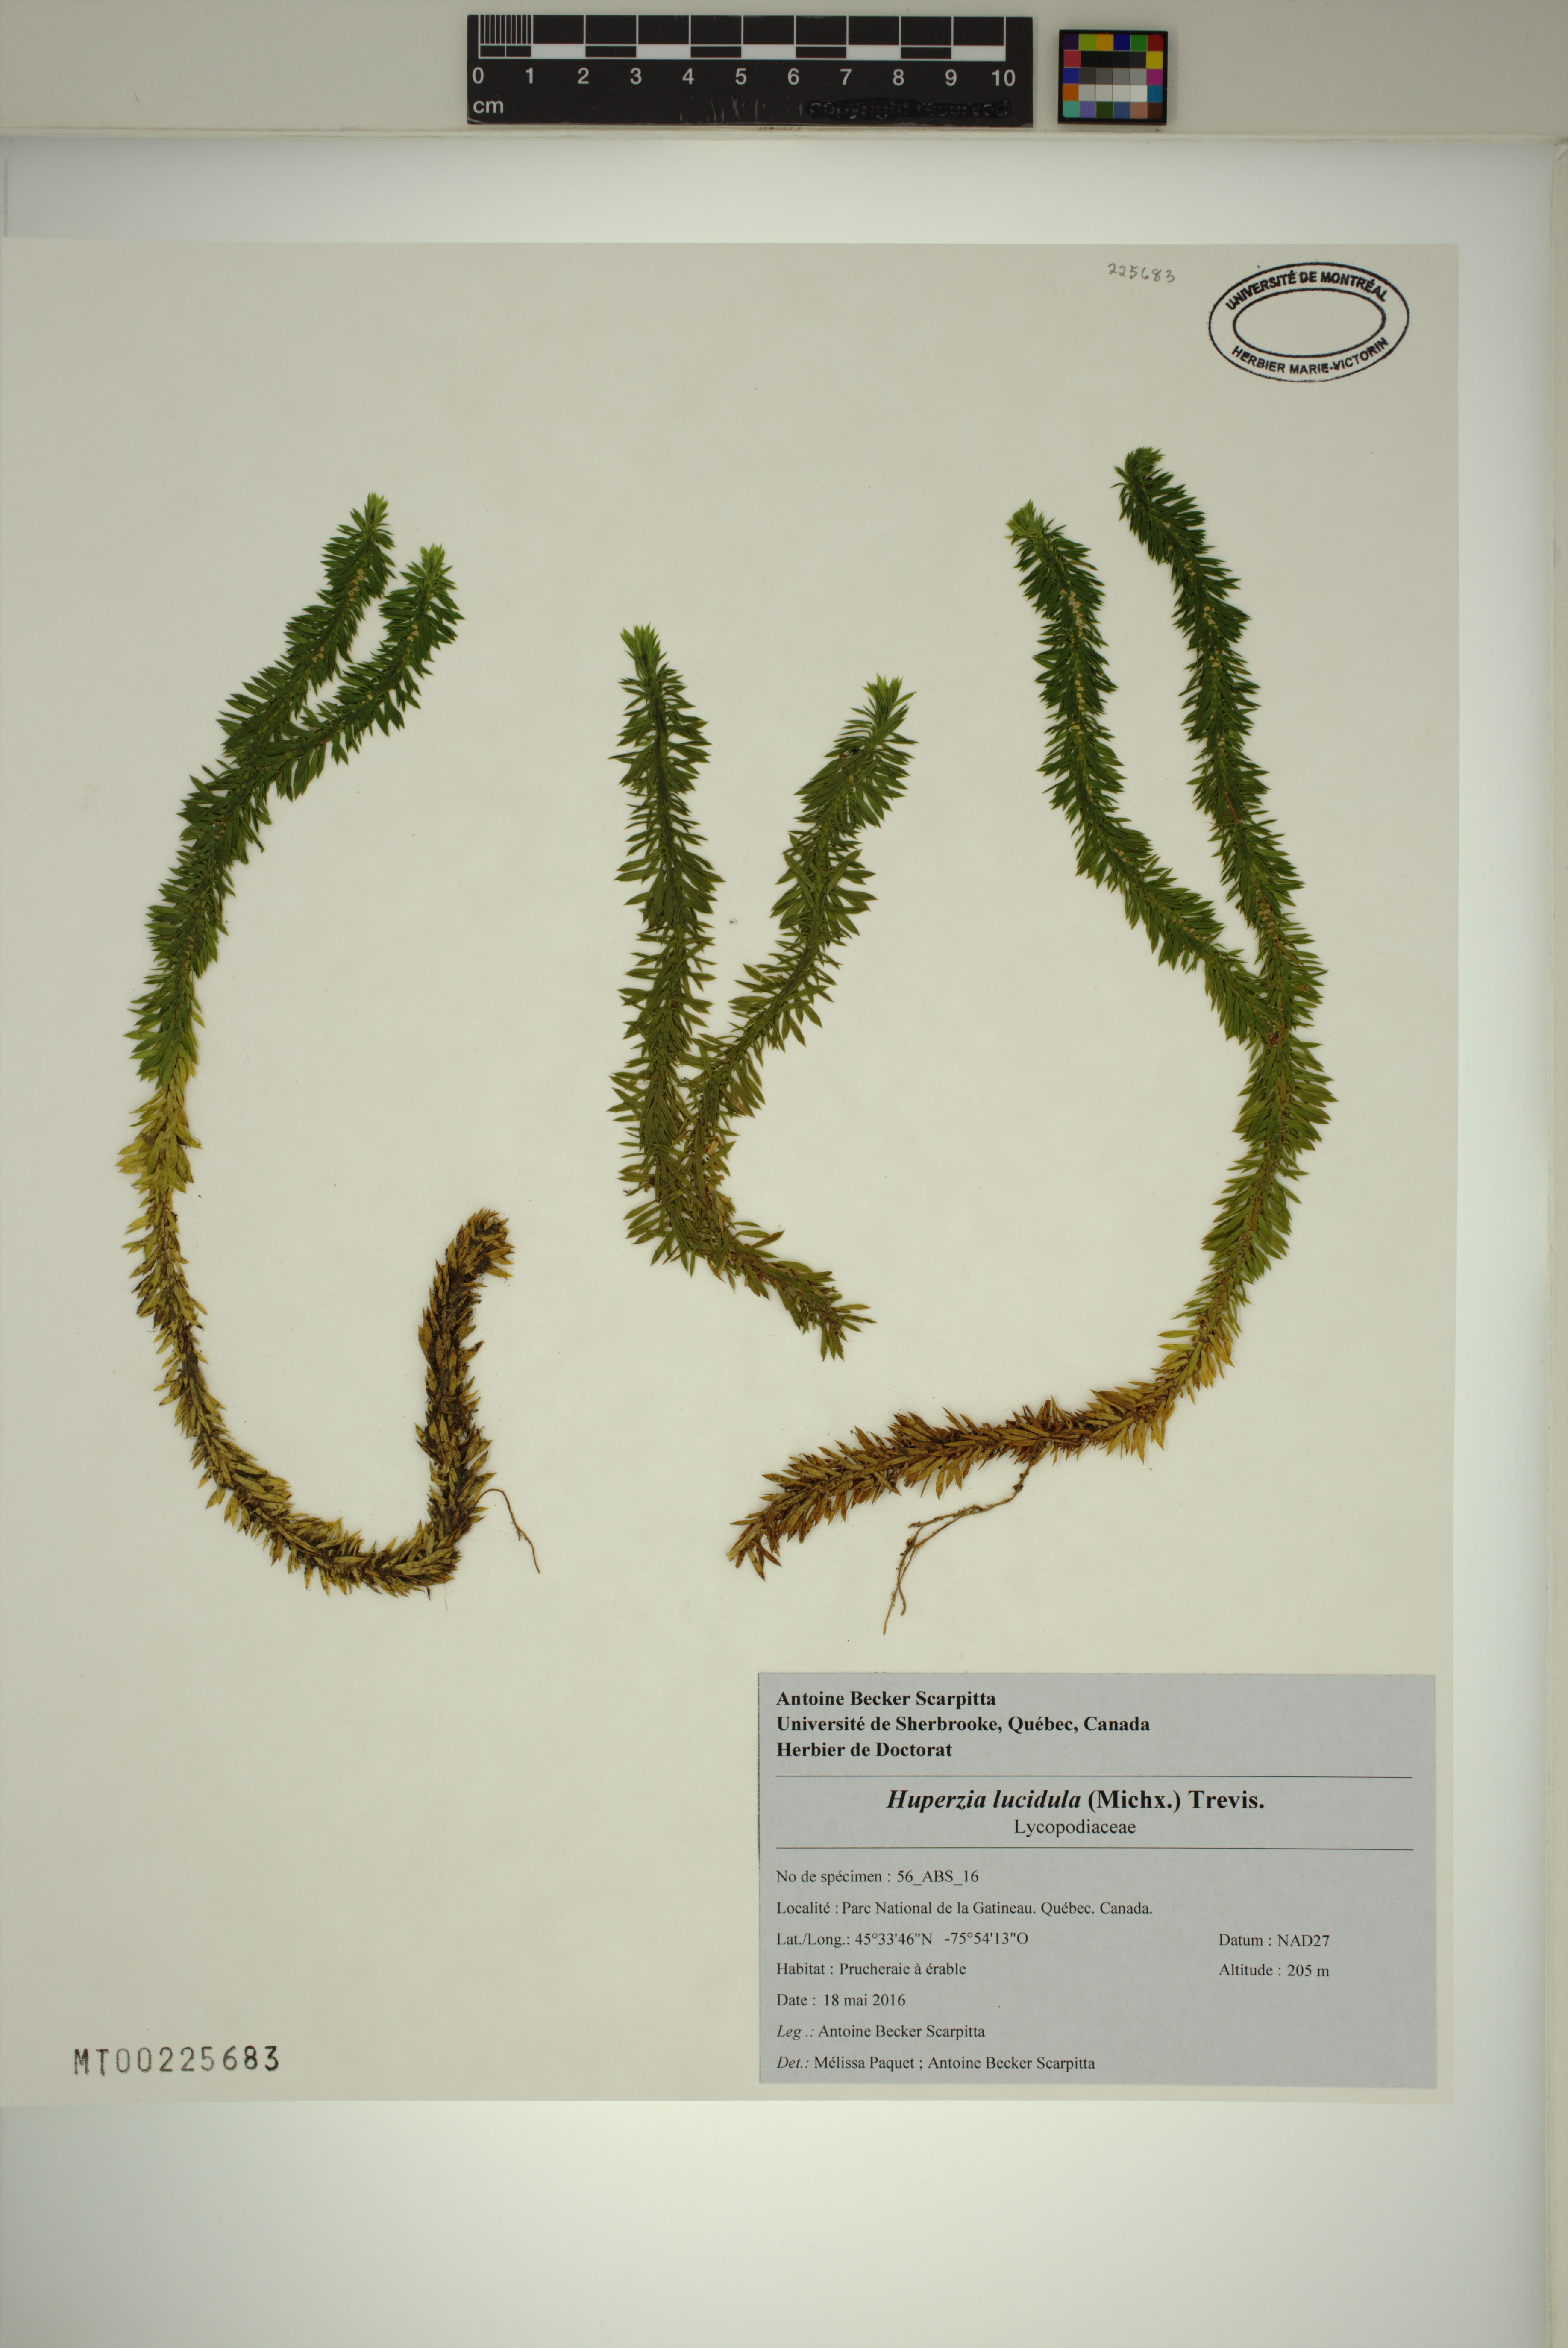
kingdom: Plantae
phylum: Tracheophyta
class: Lycopodiopsida
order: Lycopodiales
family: Lycopodiaceae
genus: Huperzia
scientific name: Huperzia lucidula
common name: Shining clubmoss
